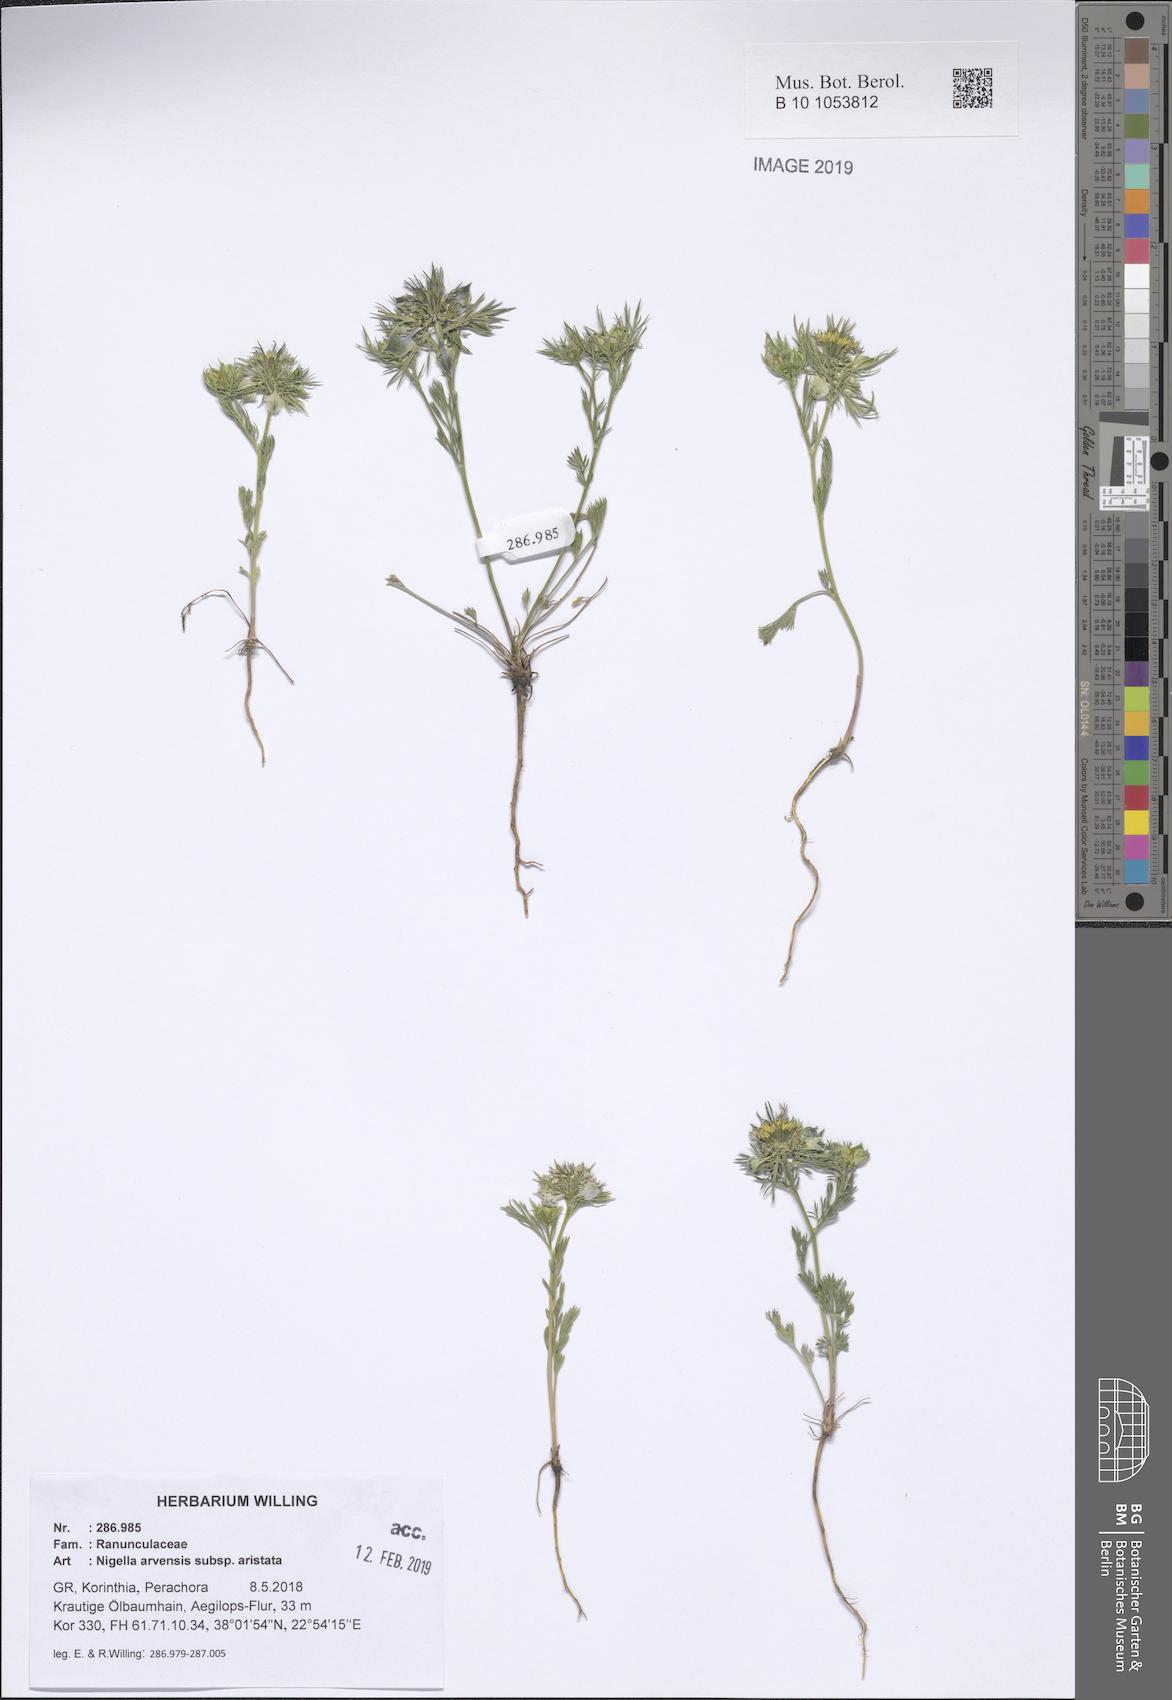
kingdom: Plantae
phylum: Tracheophyta
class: Magnoliopsida
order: Ranunculales
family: Ranunculaceae
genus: Nigella
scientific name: Nigella arvensis
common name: Wild fennel-flower
